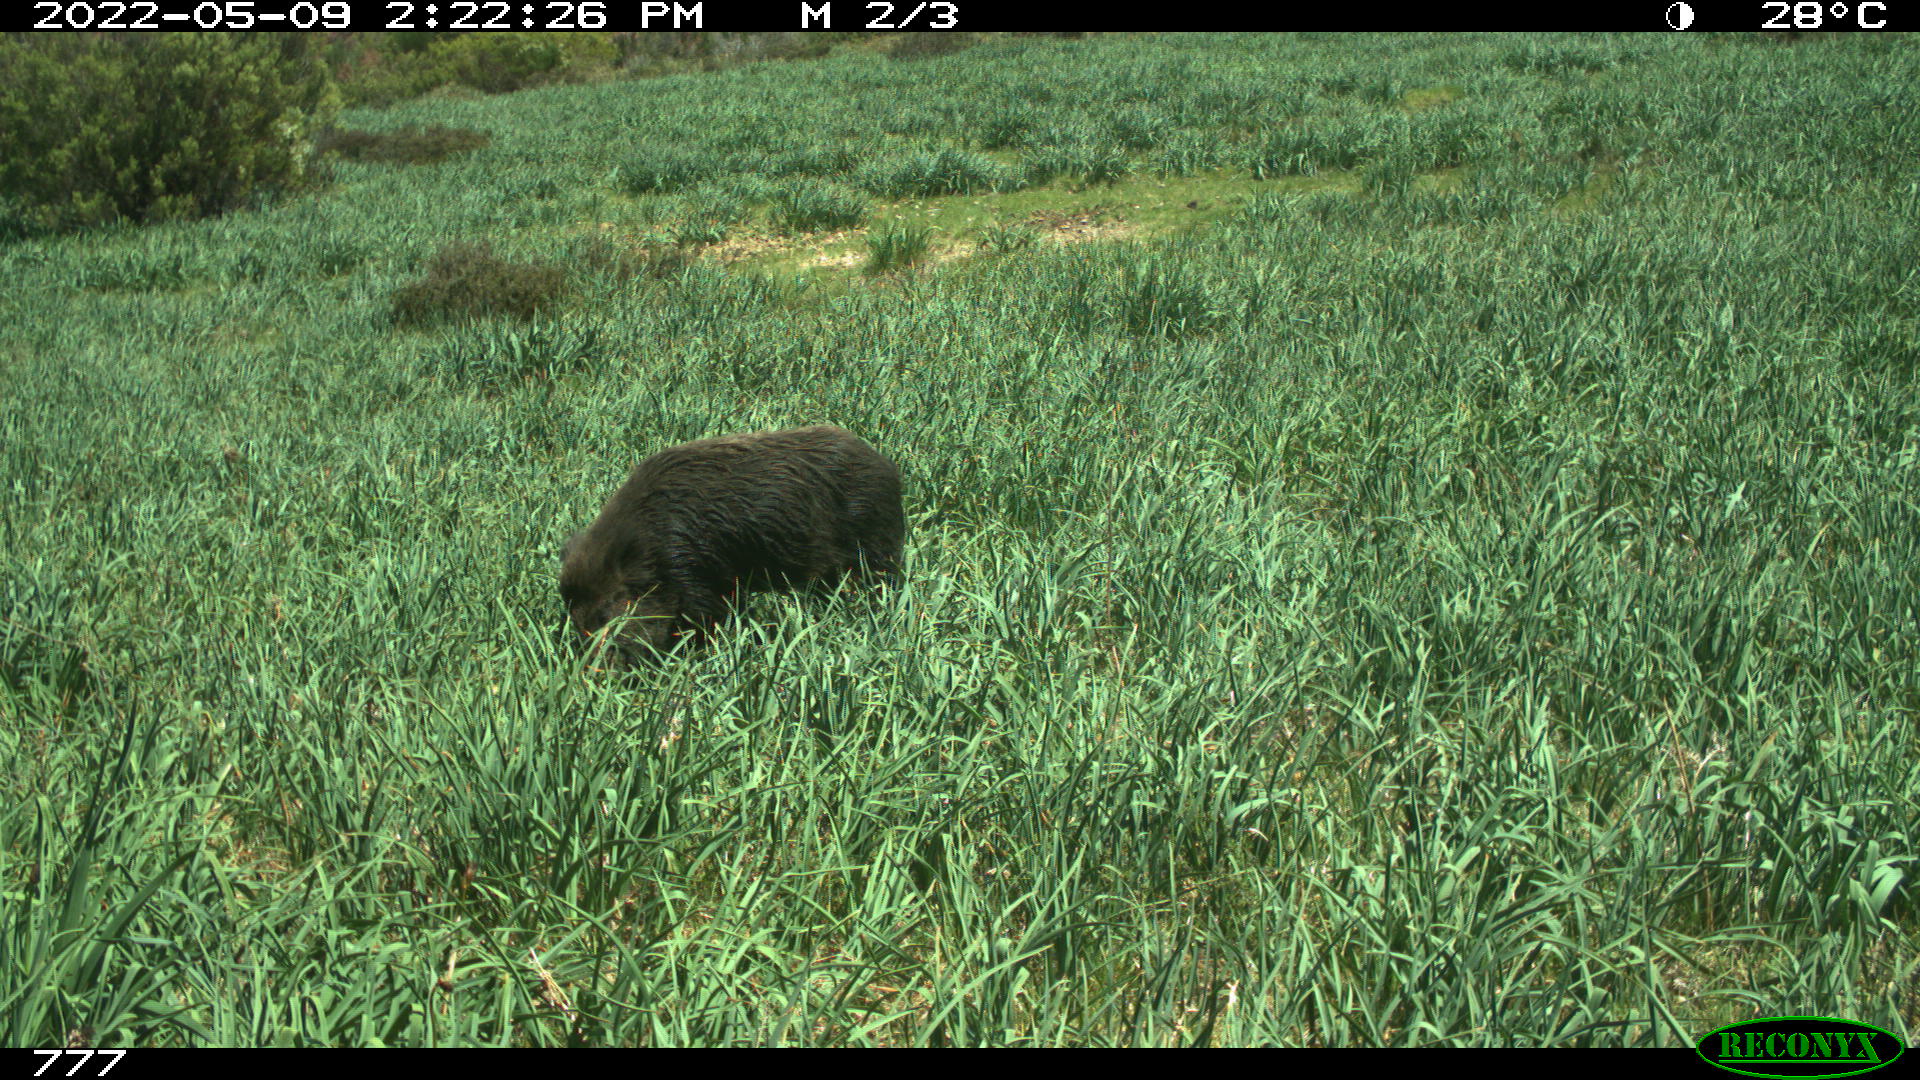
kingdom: Animalia
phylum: Chordata
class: Mammalia
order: Artiodactyla
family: Suidae
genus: Sus
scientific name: Sus scrofa
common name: Wild boar
